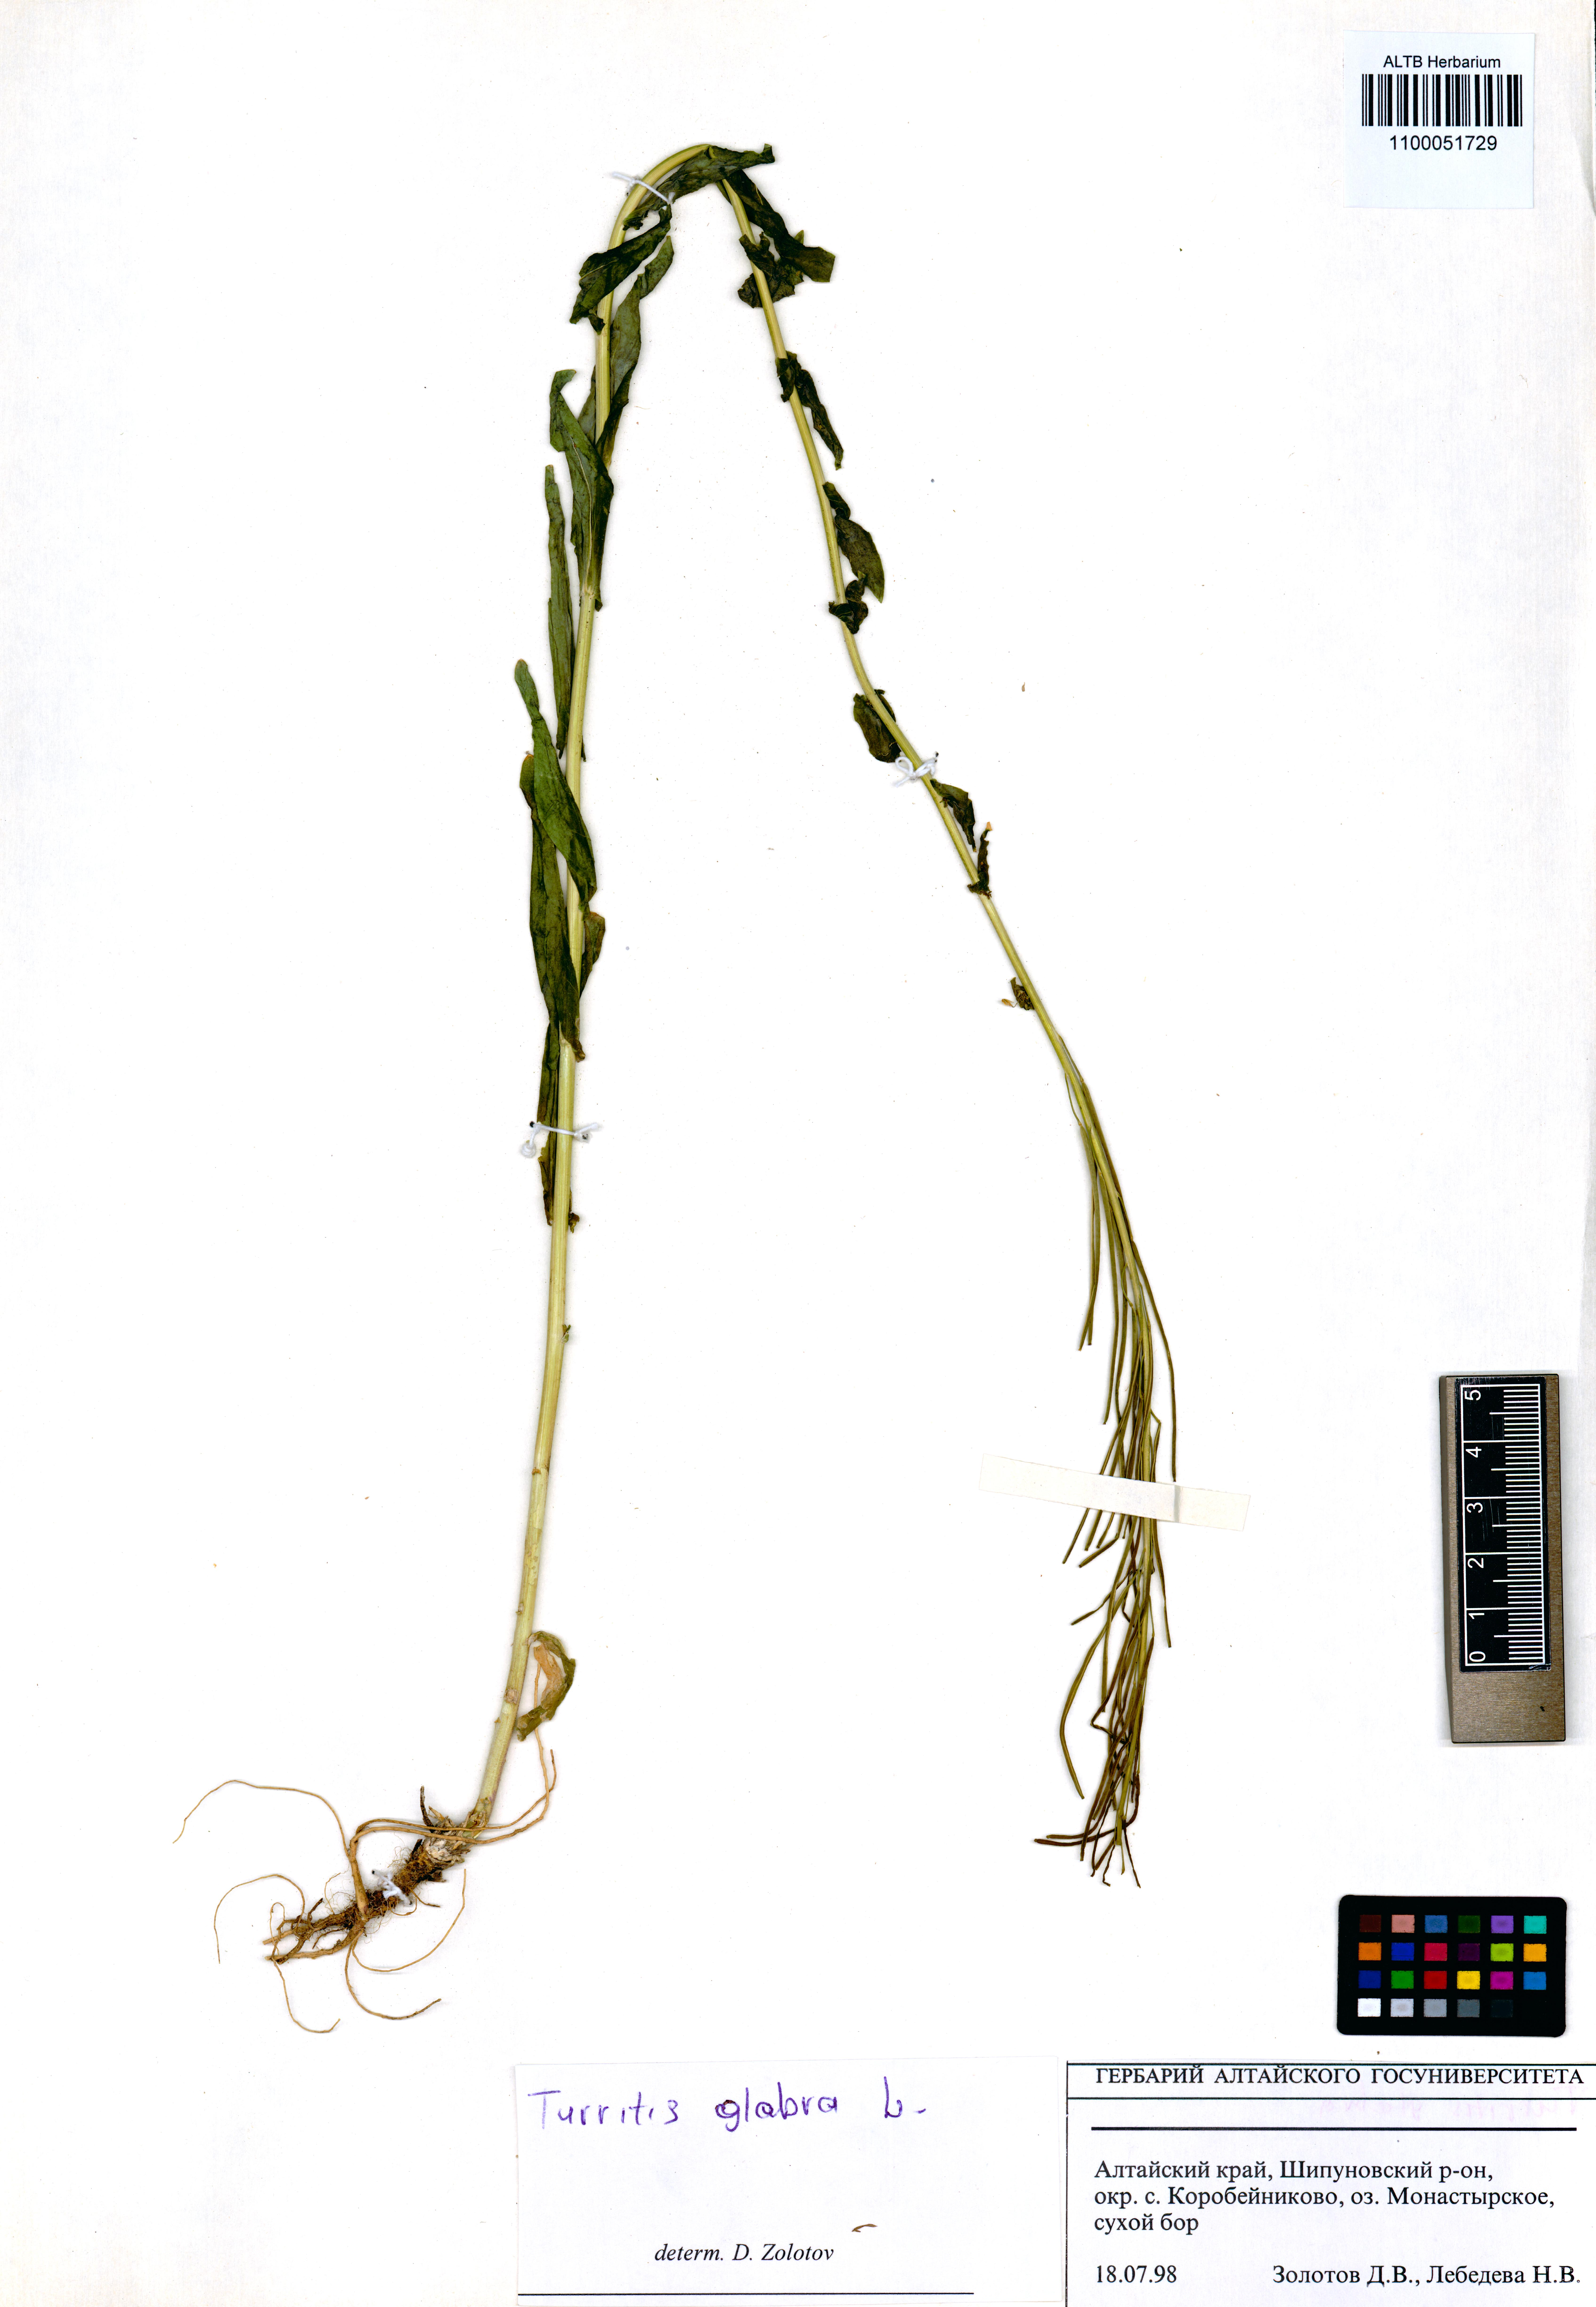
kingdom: Plantae
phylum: Tracheophyta
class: Magnoliopsida
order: Brassicales
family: Brassicaceae
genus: Turritis
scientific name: Turritis glabra
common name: Tower rockcress
